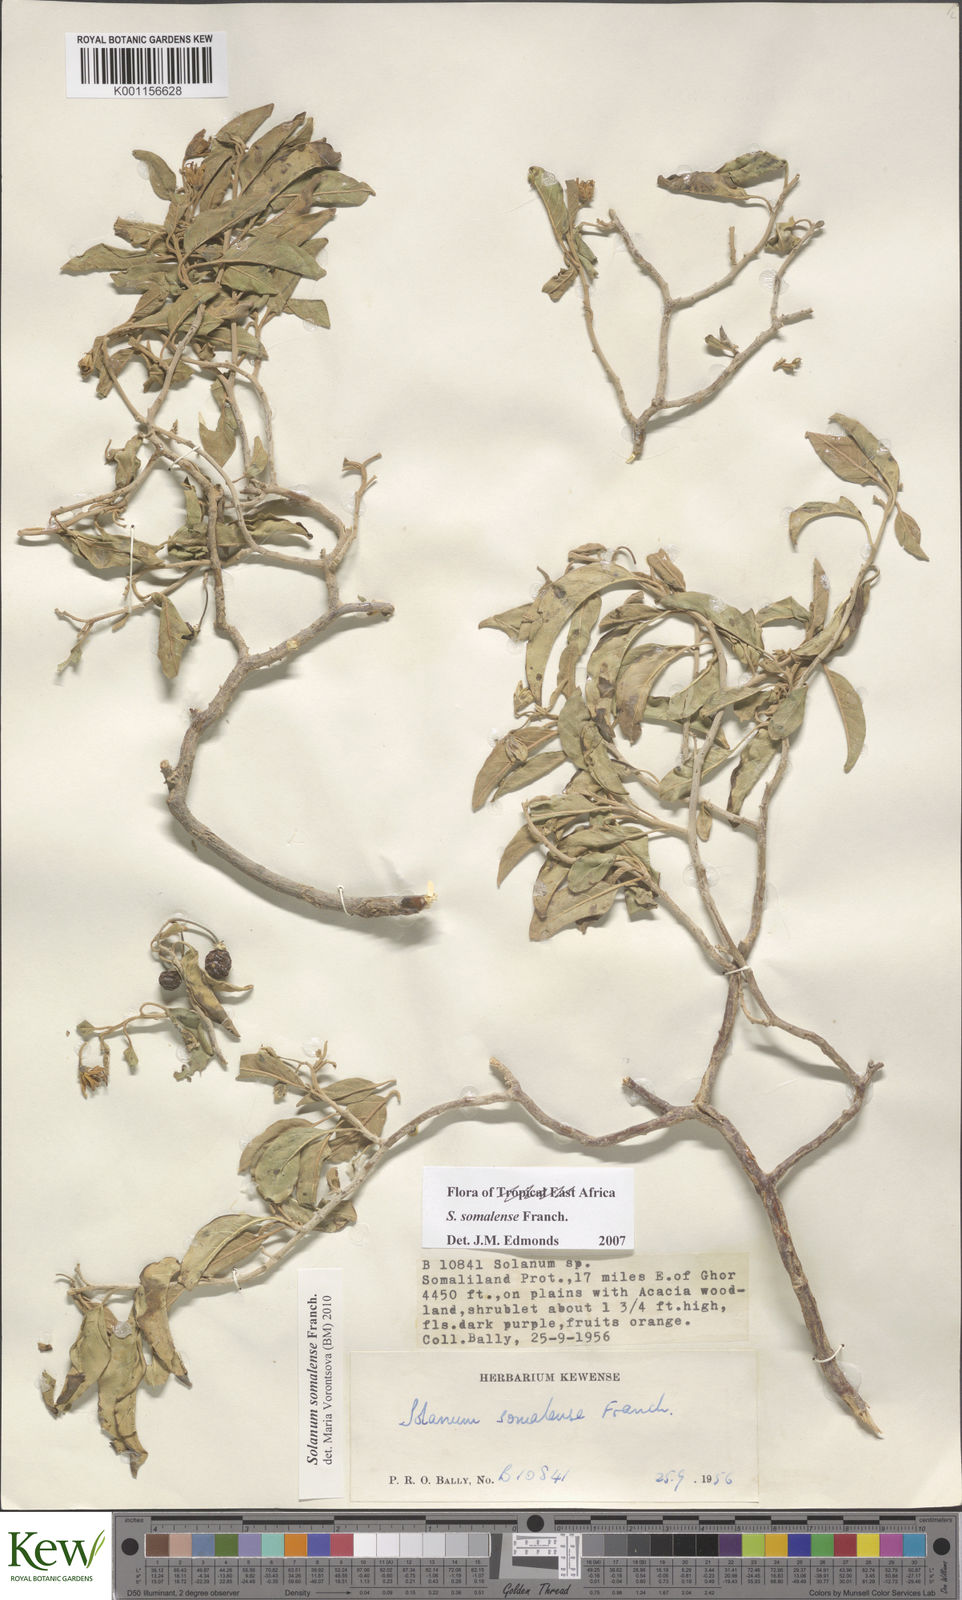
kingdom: Plantae
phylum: Tracheophyta
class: Magnoliopsida
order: Solanales
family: Solanaceae
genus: Solanum
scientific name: Solanum somalense
